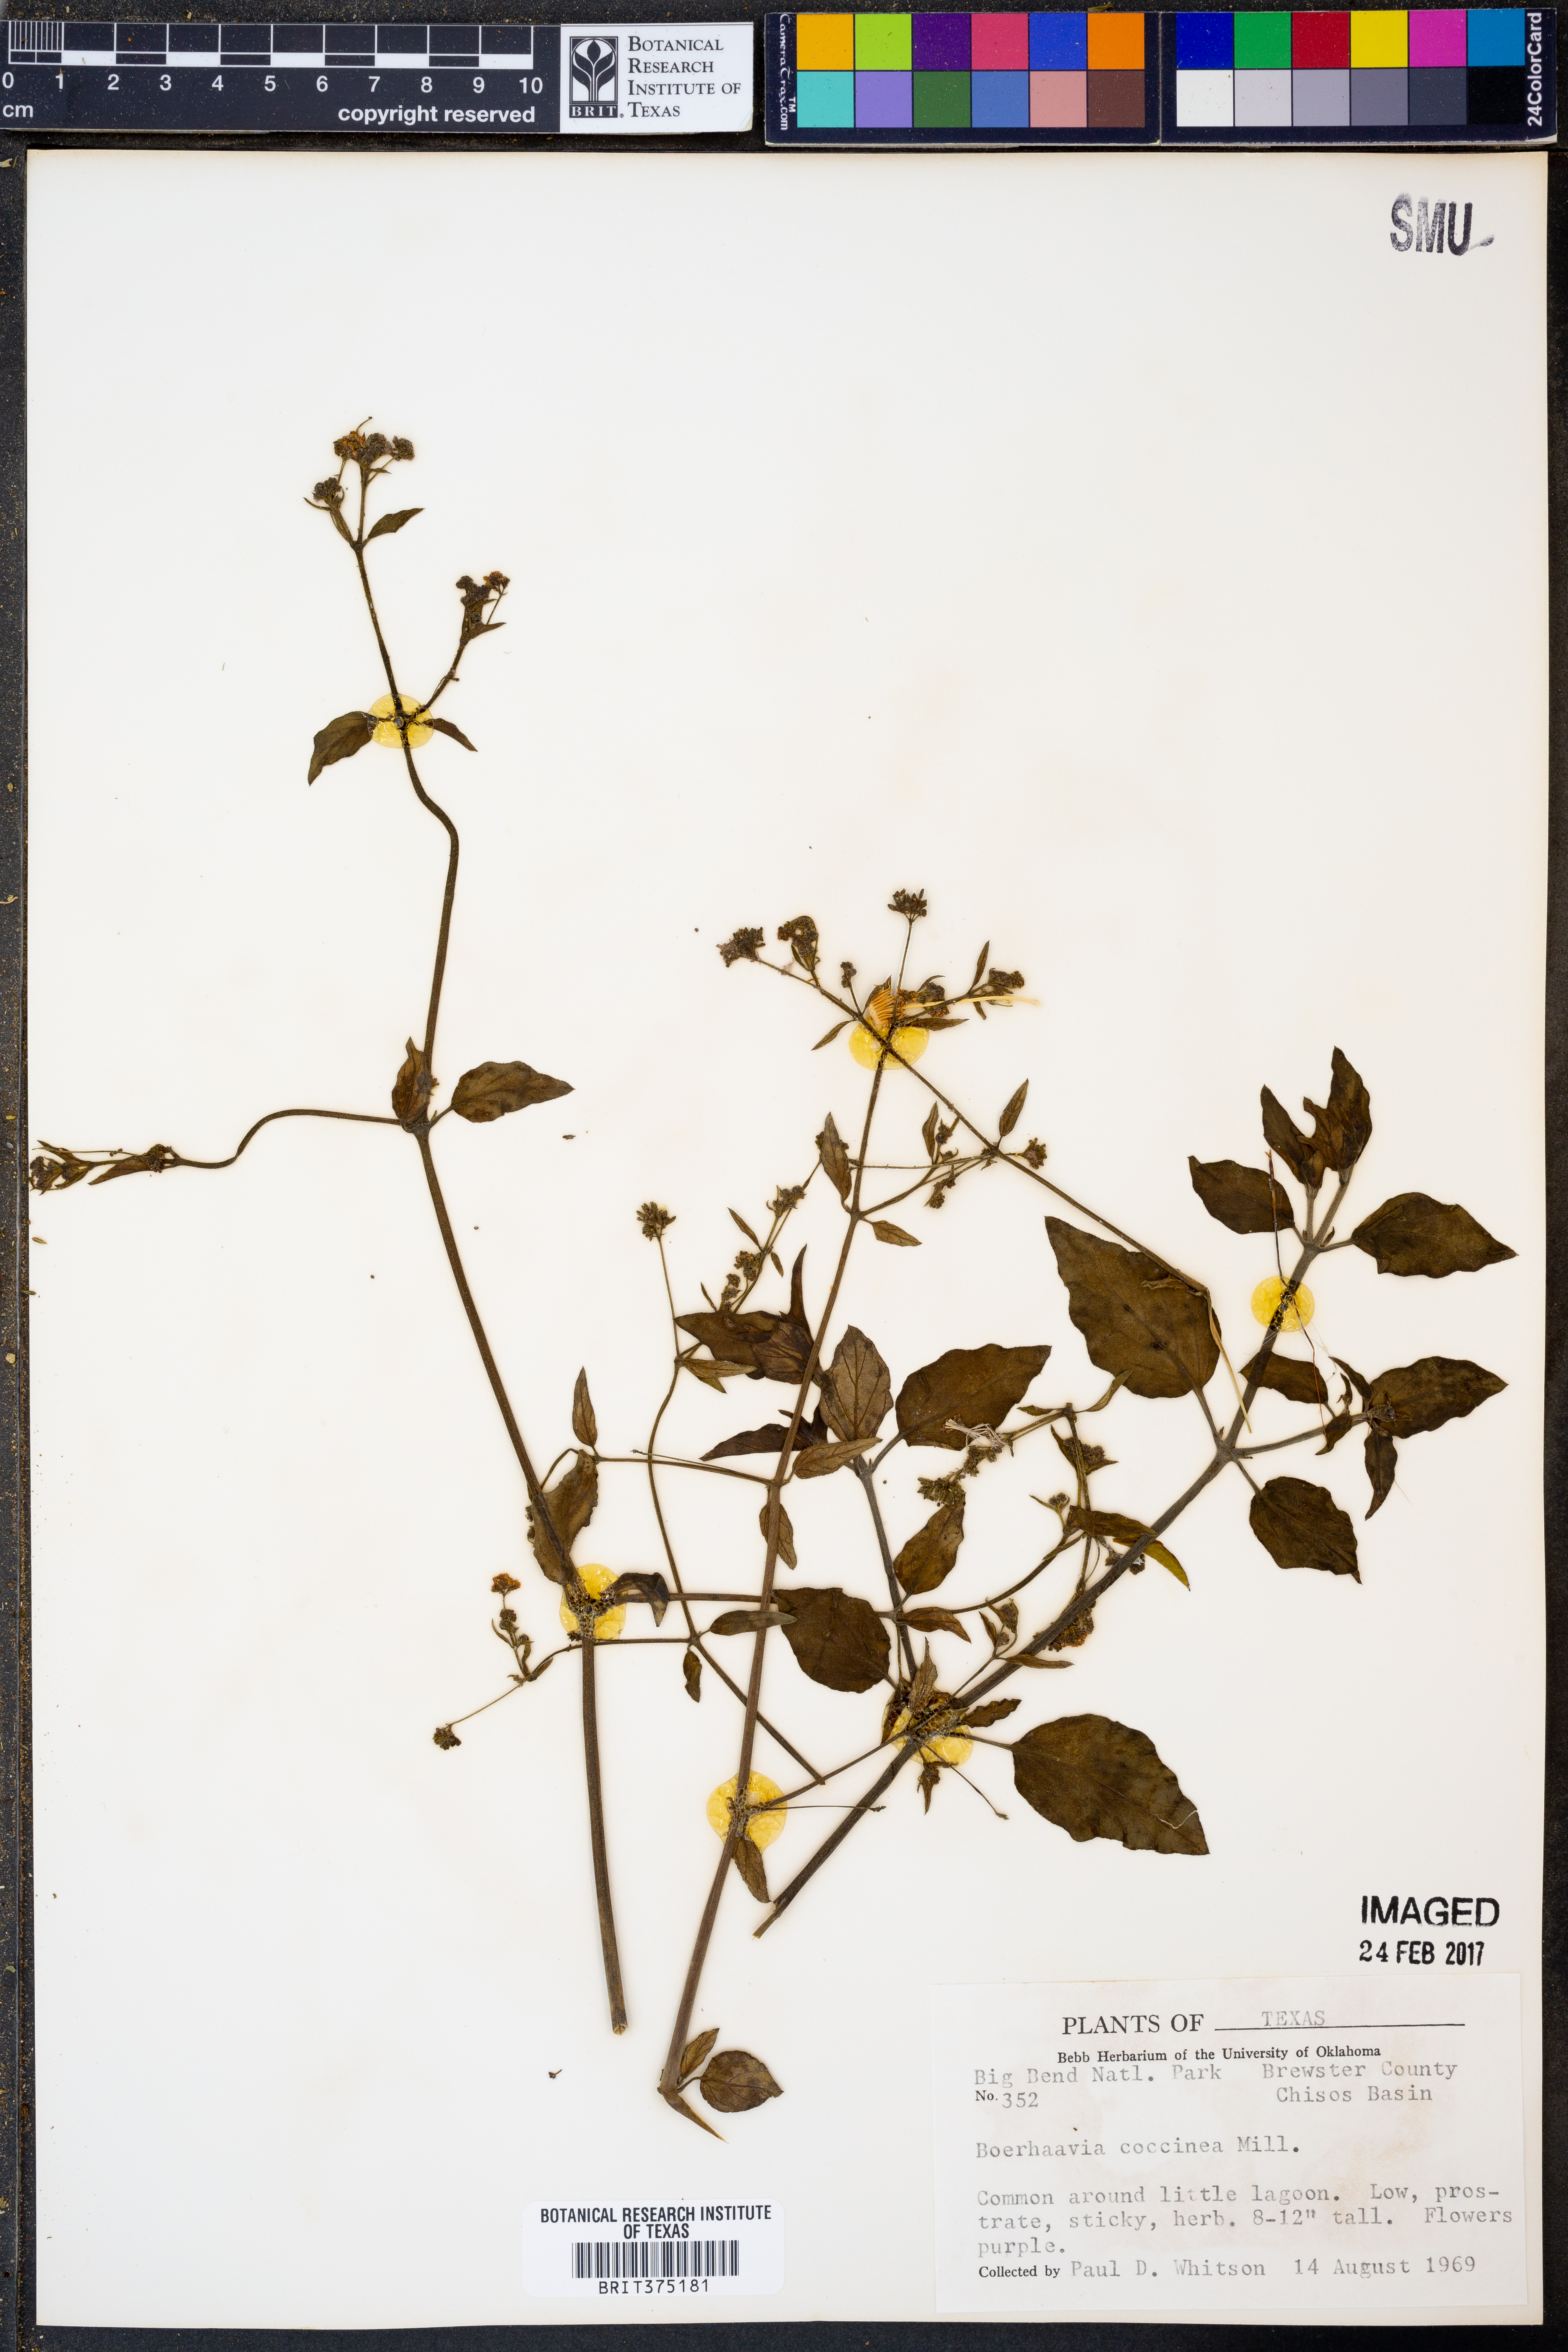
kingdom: Plantae
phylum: Tracheophyta
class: Magnoliopsida
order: Caryophyllales
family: Nyctaginaceae
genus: Boerhavia
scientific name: Boerhavia coccinea
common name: Scarlet spiderling
